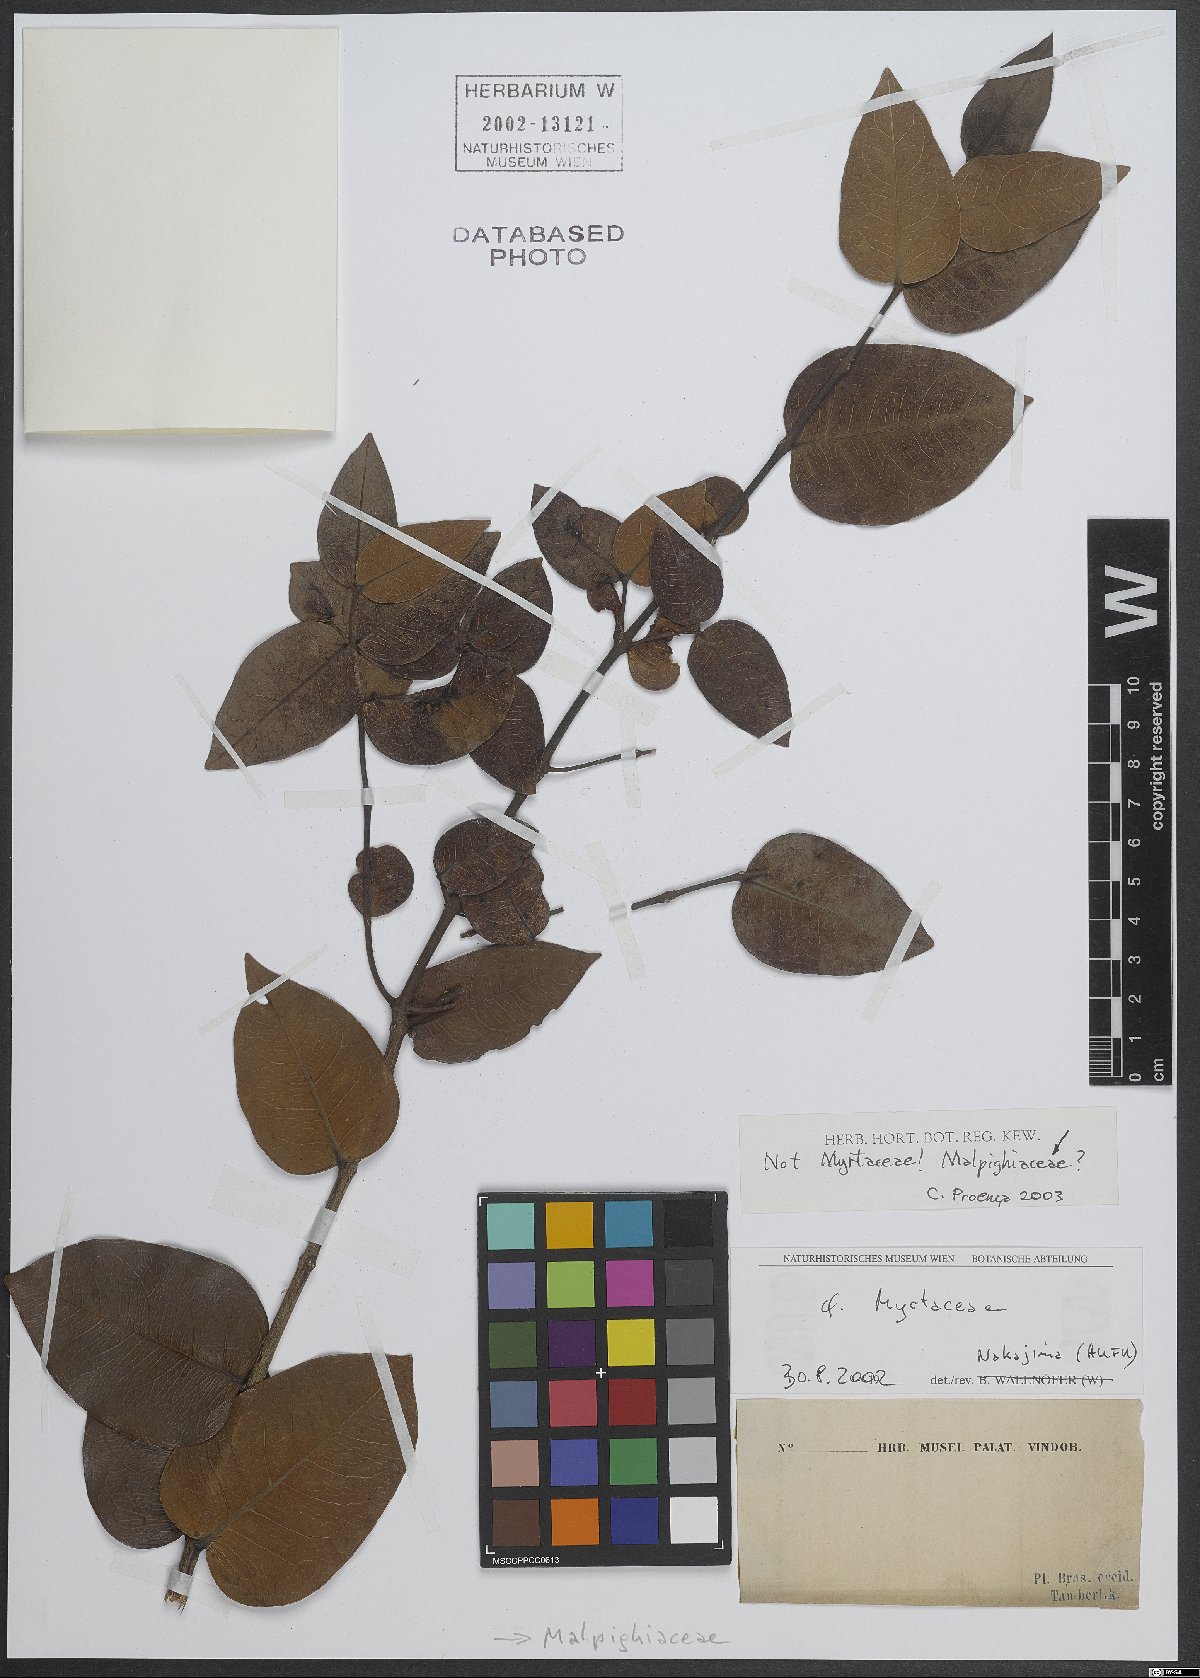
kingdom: Plantae
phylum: Tracheophyta
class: Magnoliopsida
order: Malpighiales
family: Malpighiaceae
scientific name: Malpighiaceae
